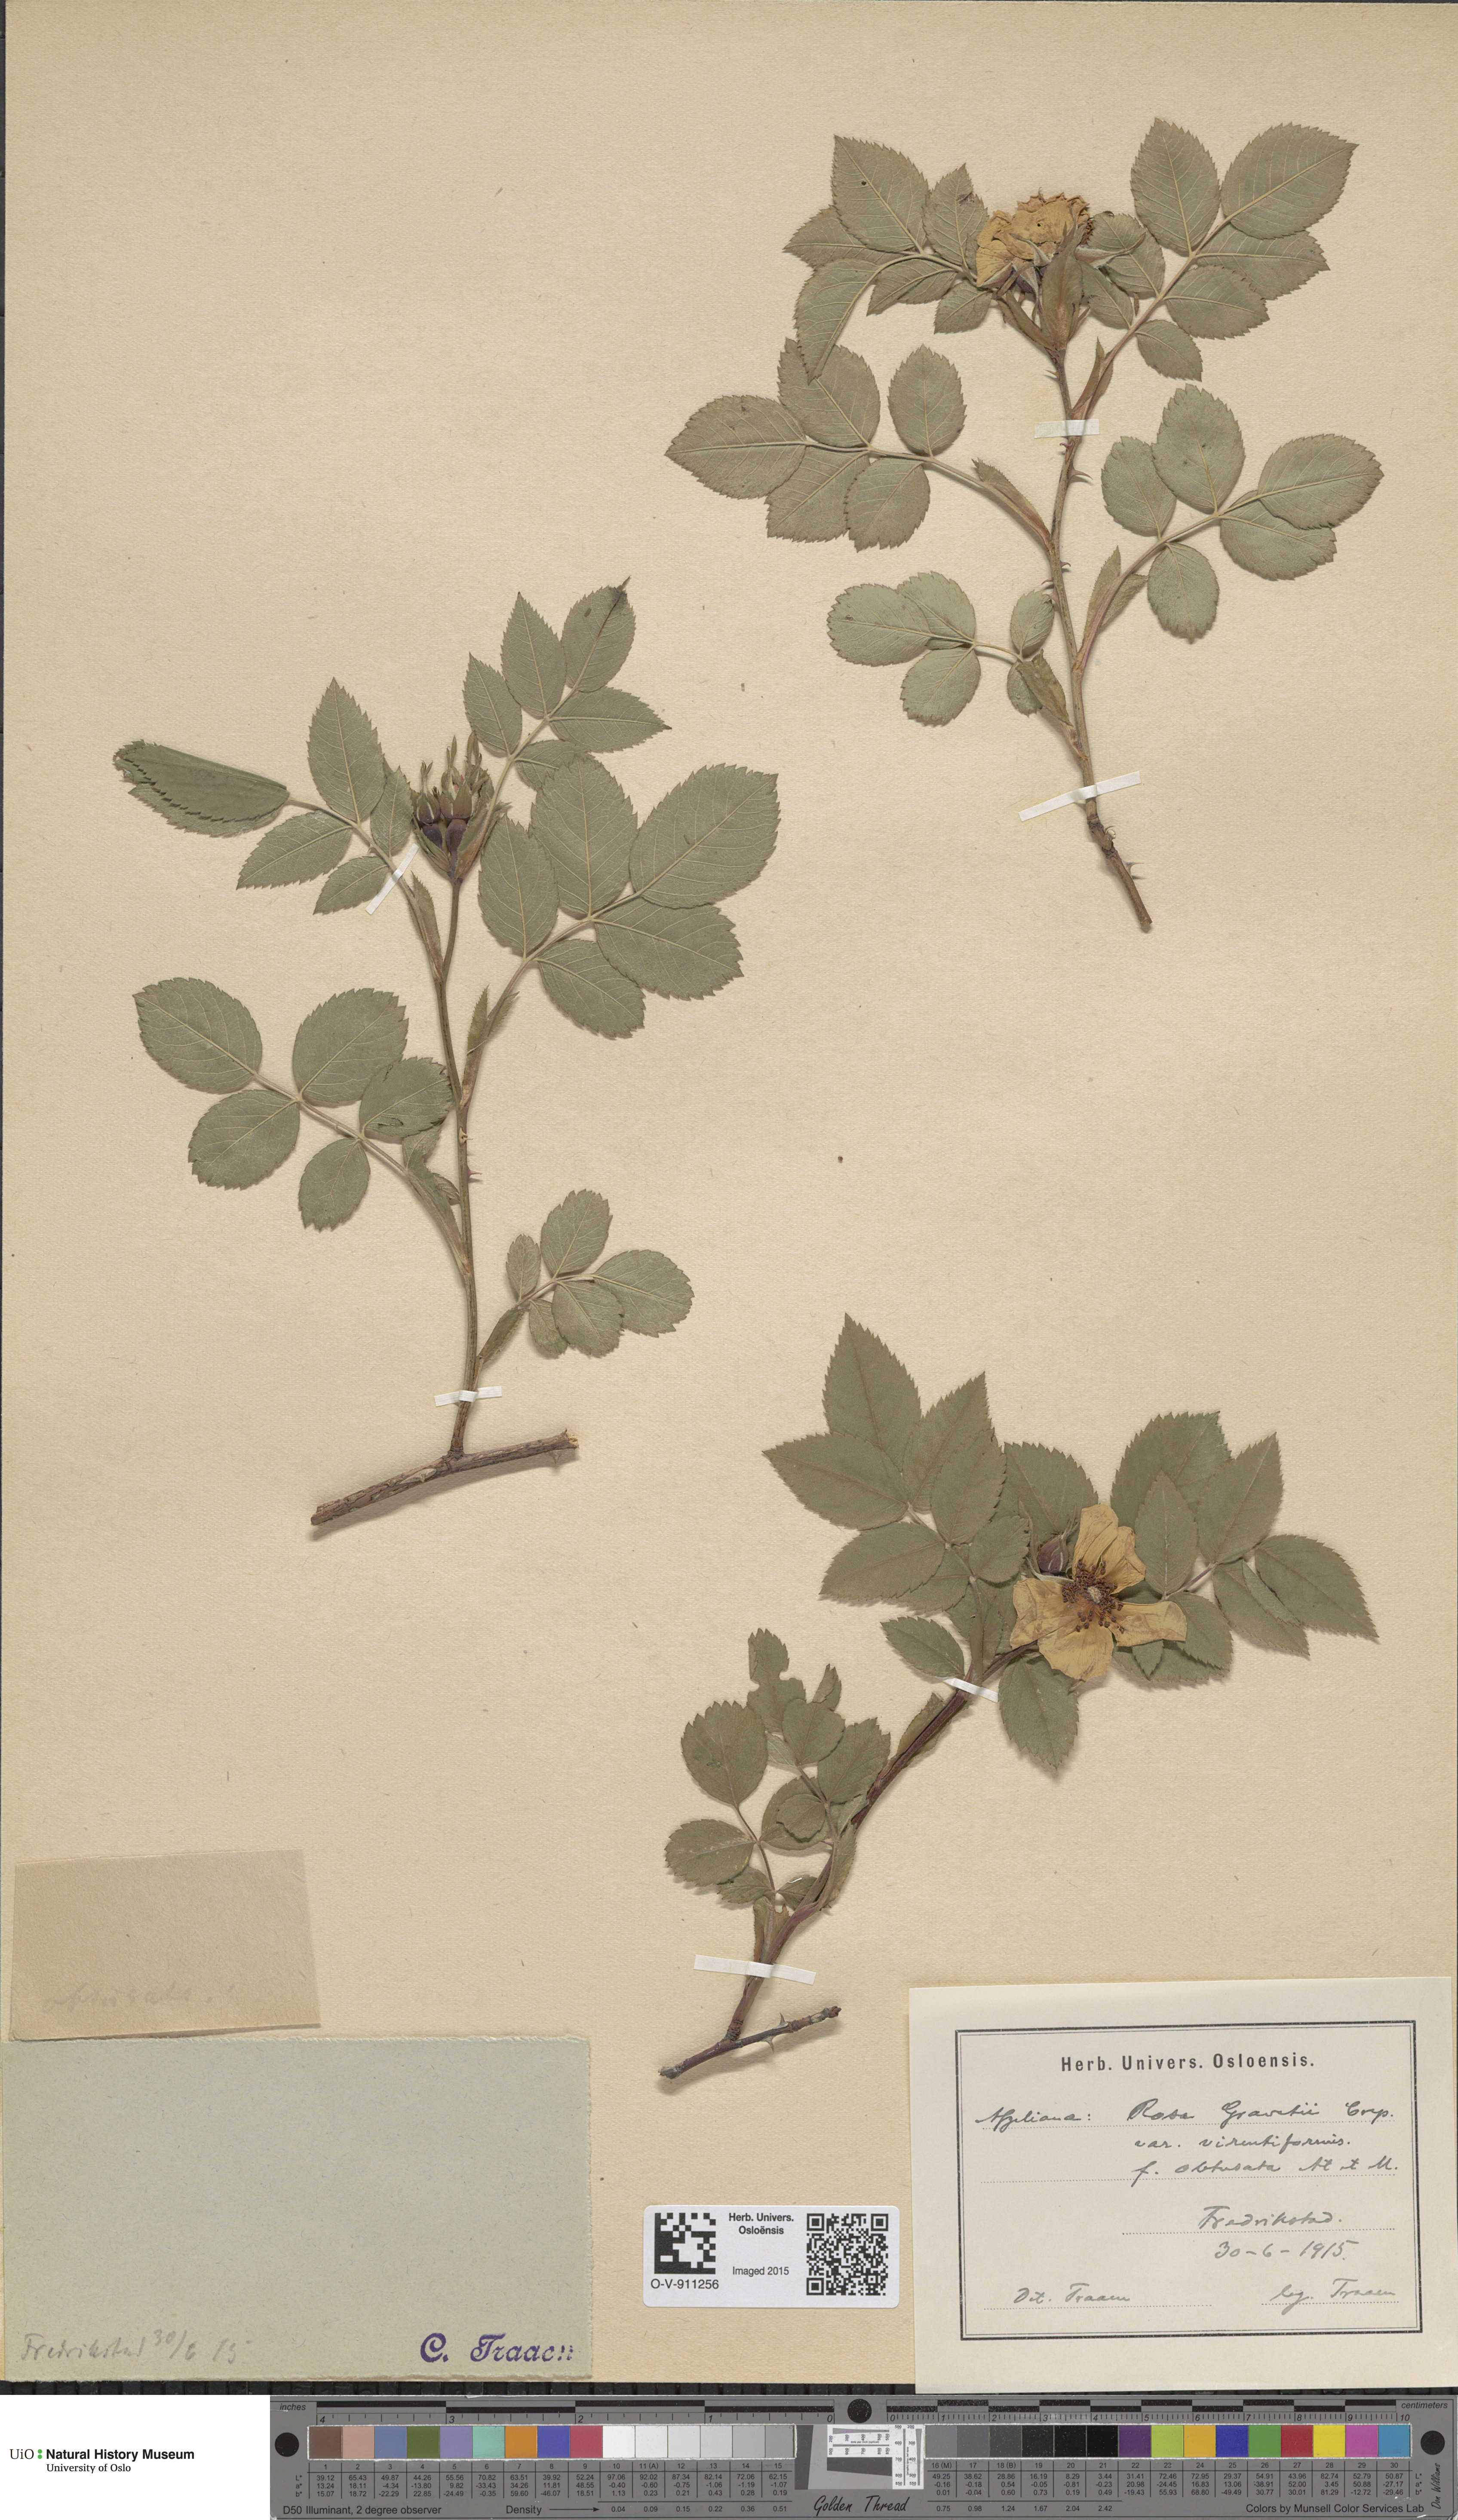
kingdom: Plantae
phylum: Tracheophyta
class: Magnoliopsida
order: Rosales
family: Rosaceae
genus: Rosa
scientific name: Rosa subcanina
